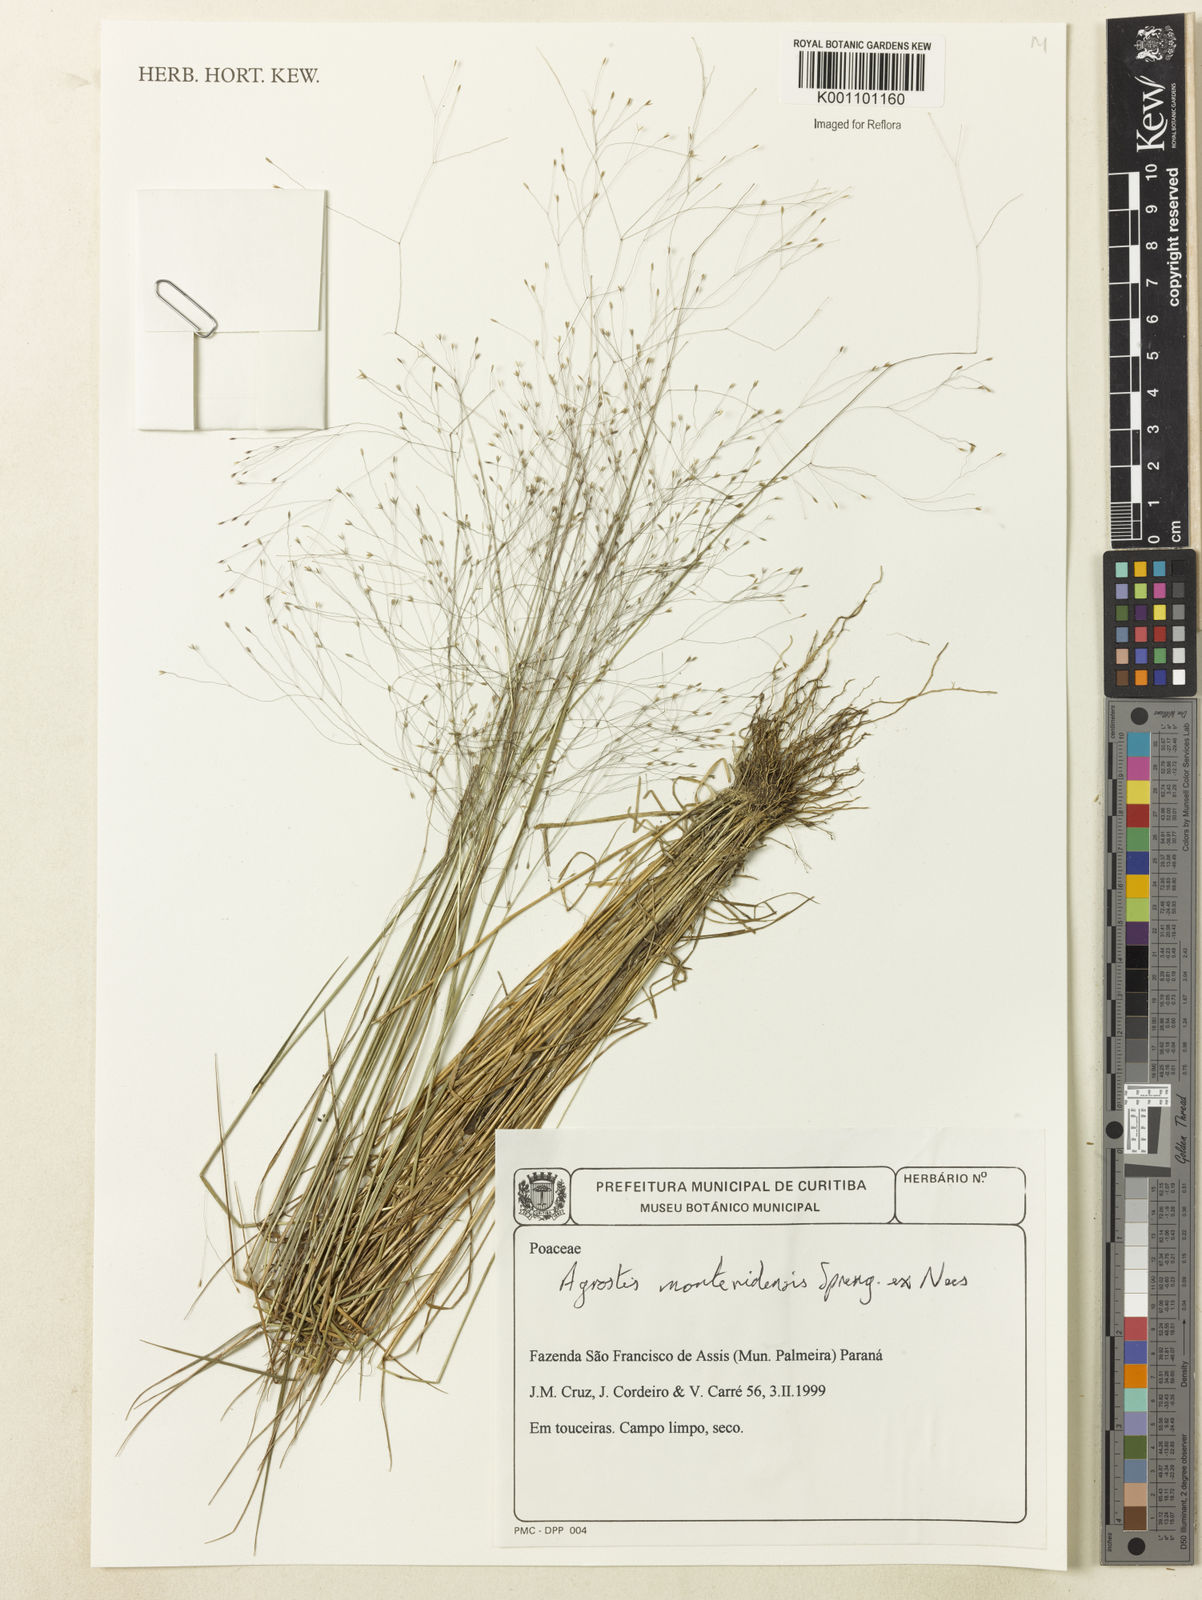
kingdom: Plantae
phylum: Tracheophyta
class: Liliopsida
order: Poales
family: Poaceae
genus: Agrostis
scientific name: Agrostis montevidensis
